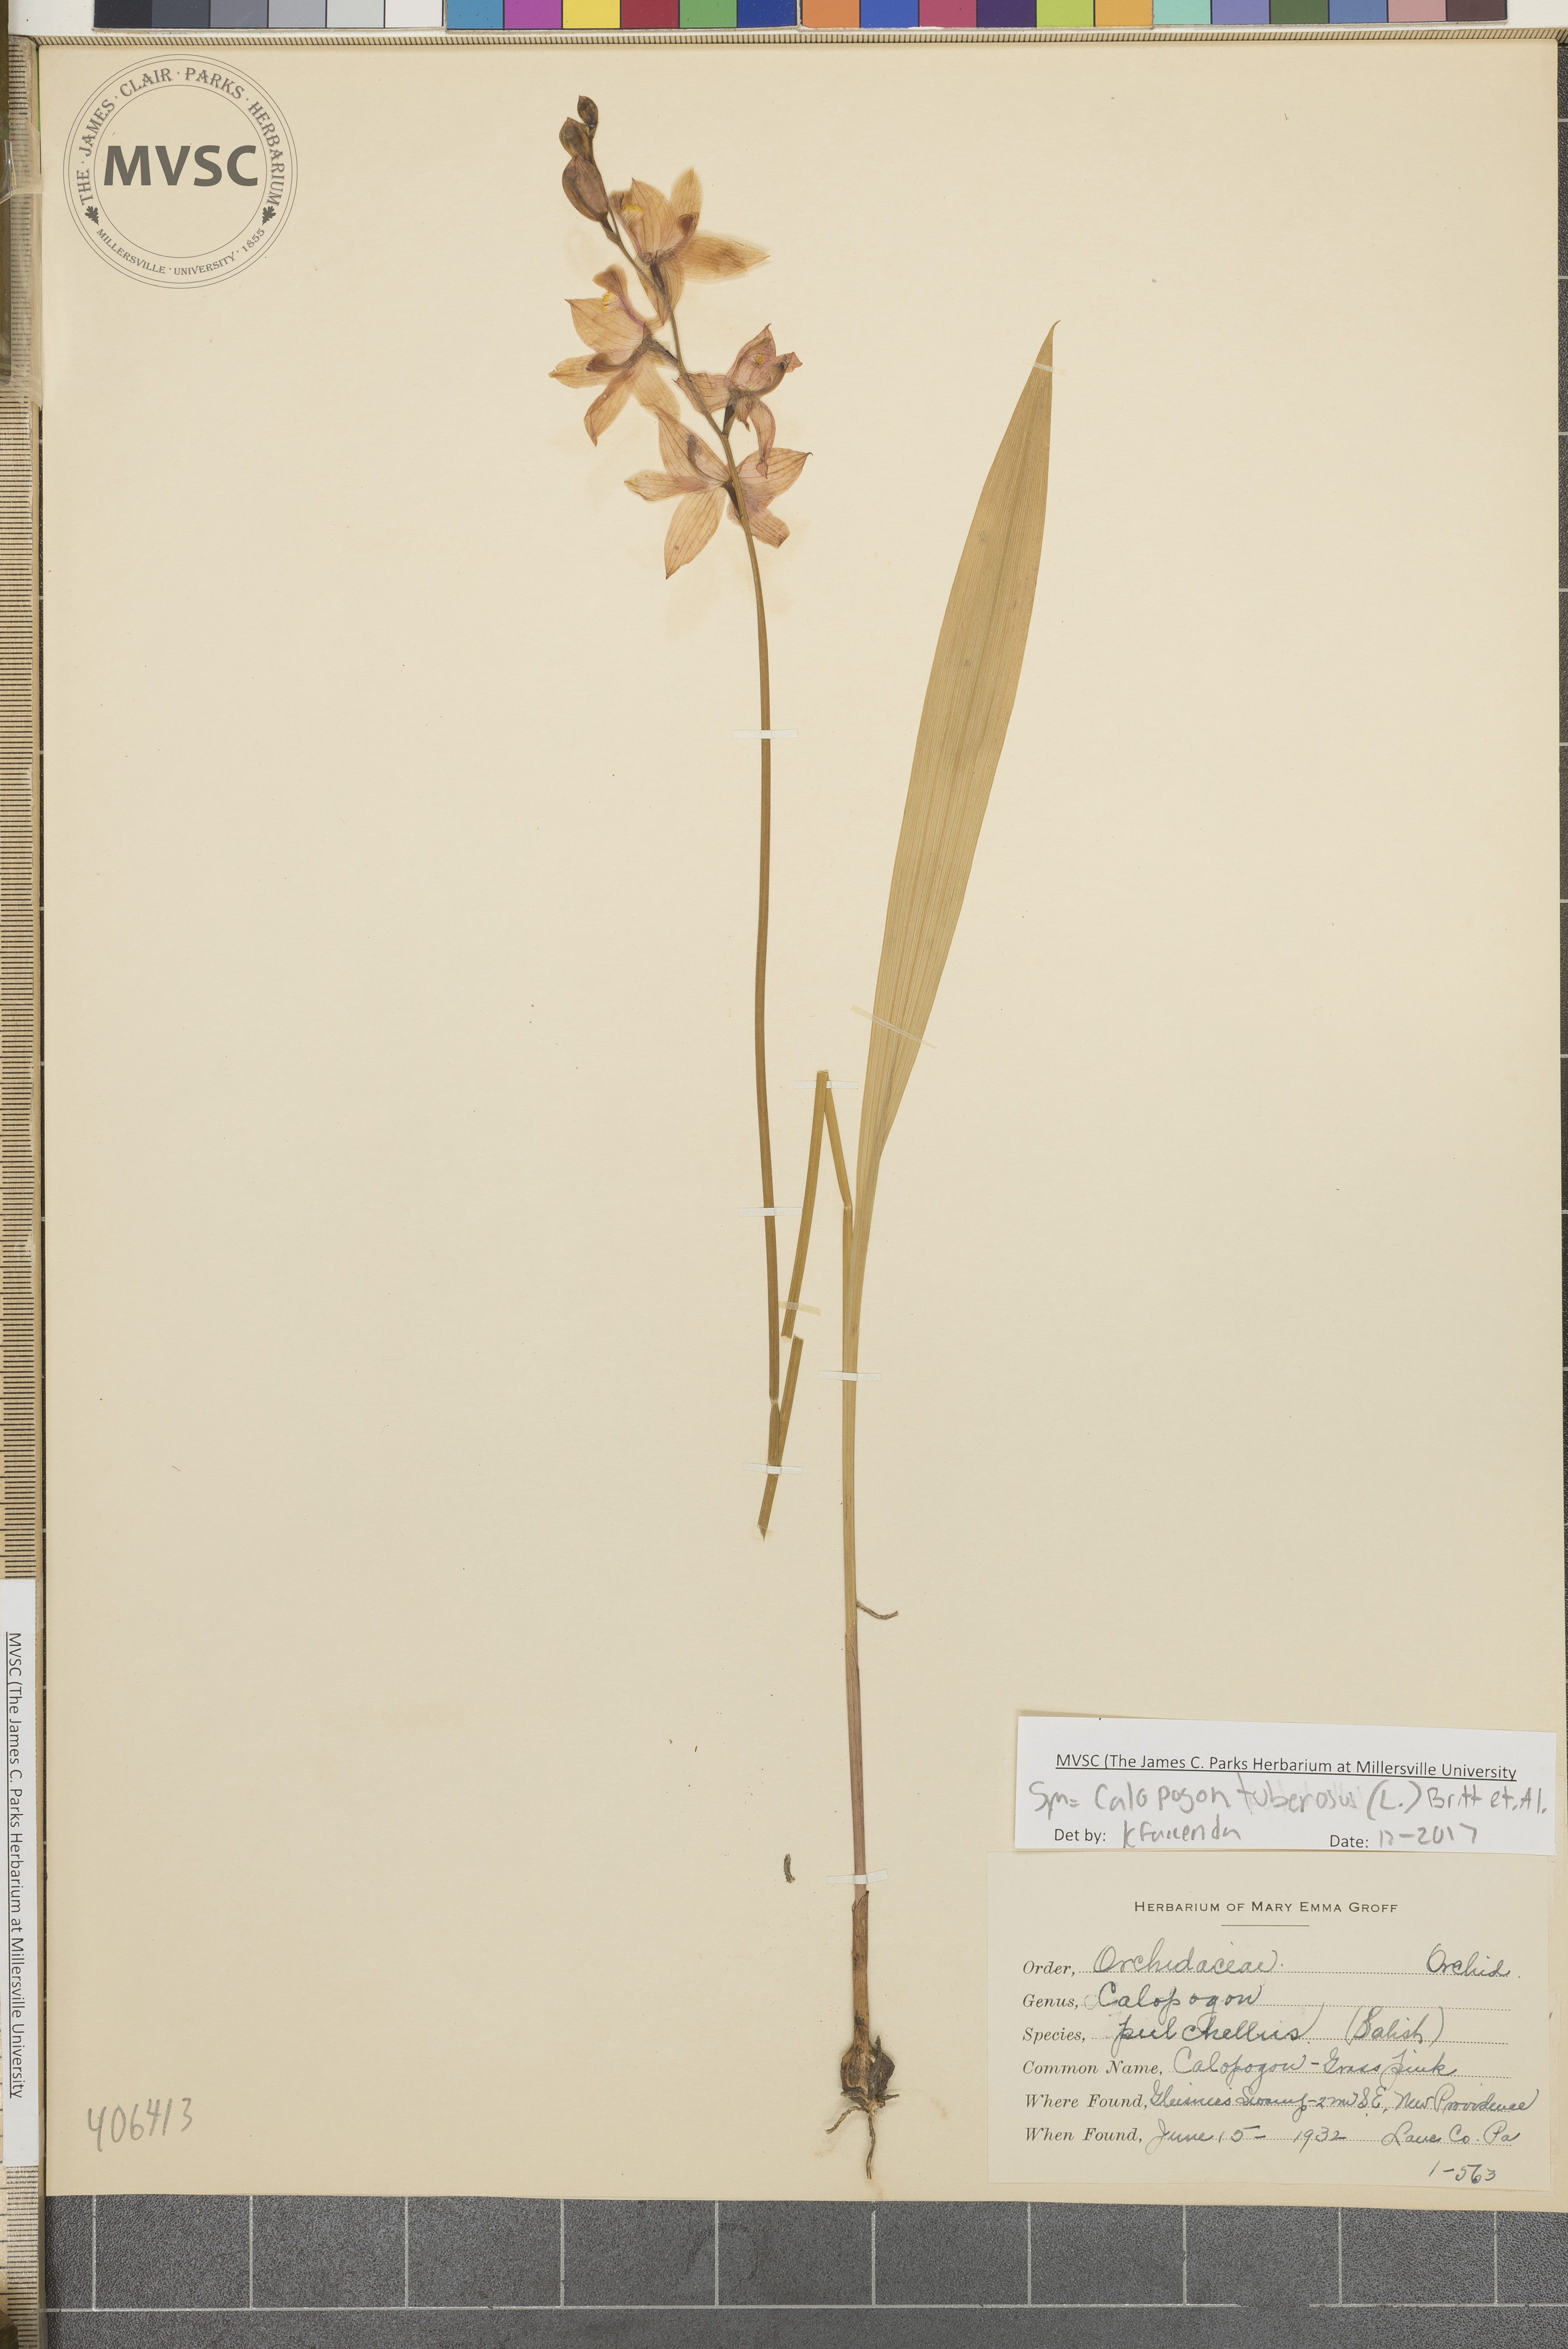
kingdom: Plantae
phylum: Tracheophyta
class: Liliopsida
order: Asparagales
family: Orchidaceae
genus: Calopogon
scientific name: Calopogon tuberosus
